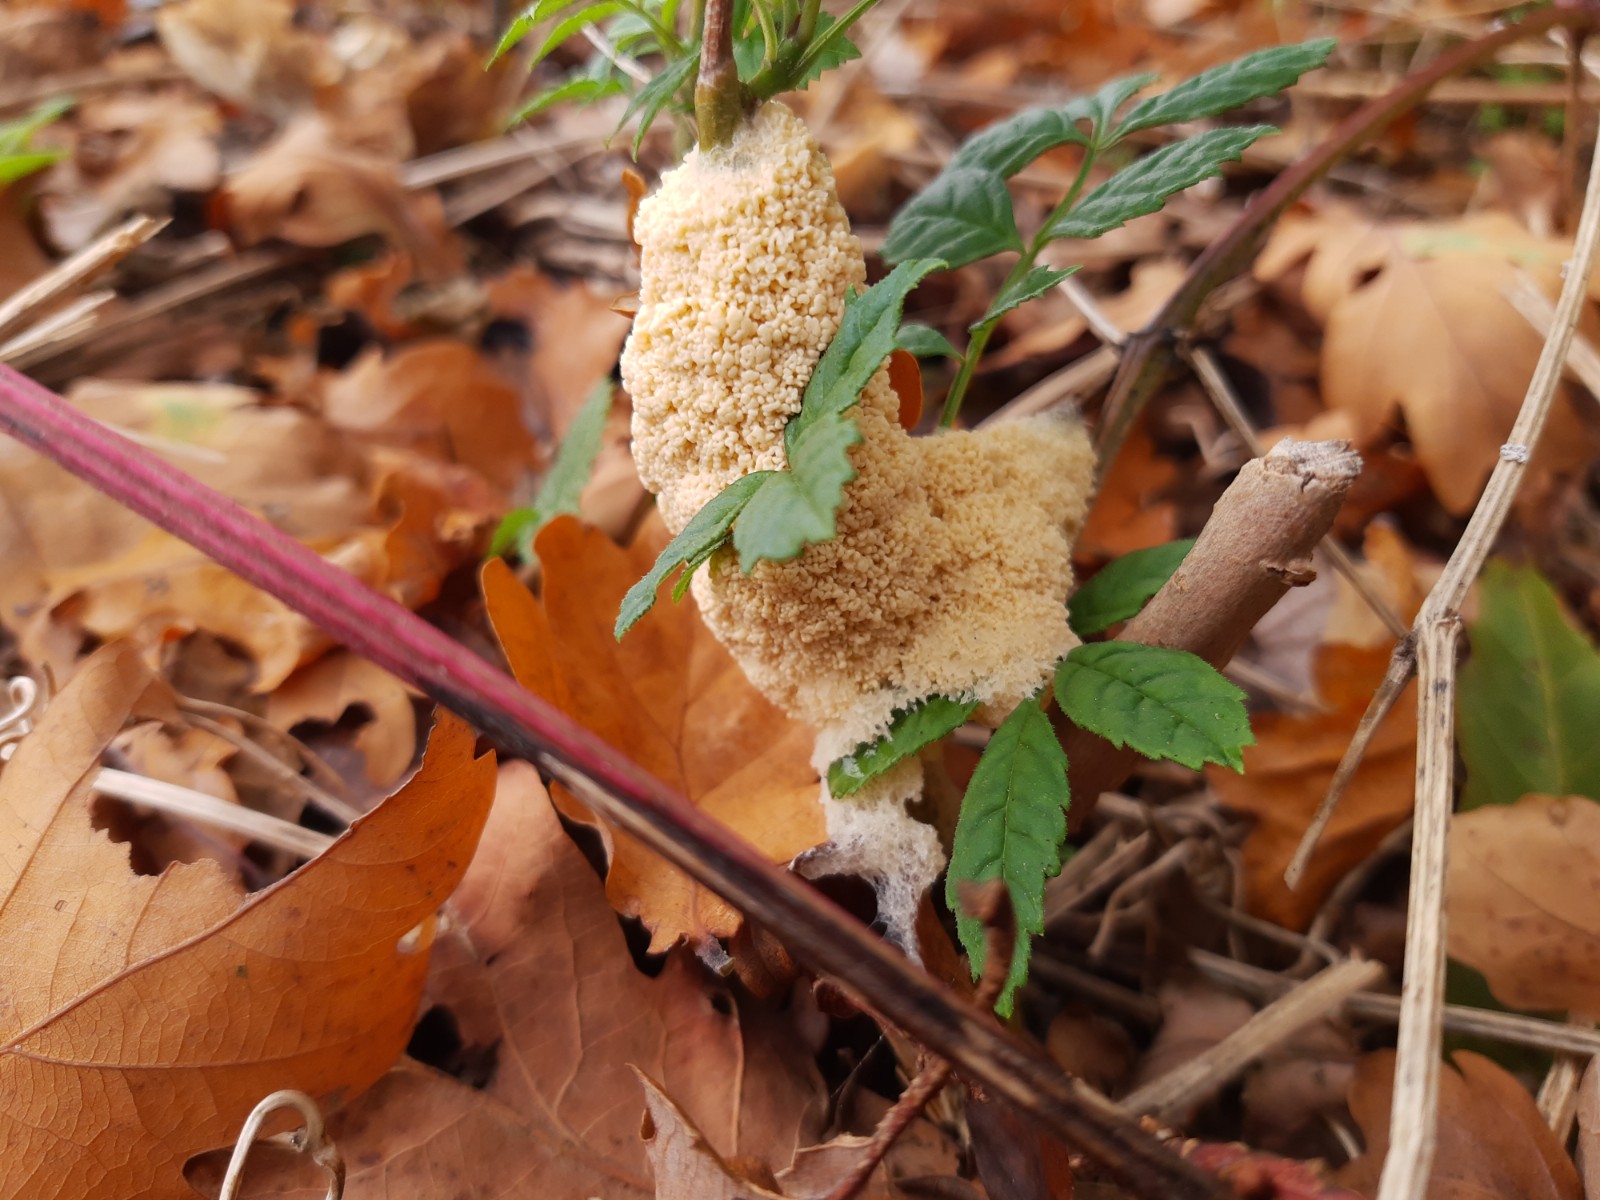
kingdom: Protozoa
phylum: Mycetozoa
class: Myxomycetes
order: Physarales
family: Physaraceae
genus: Didymium
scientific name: Didymium
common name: urteskum
